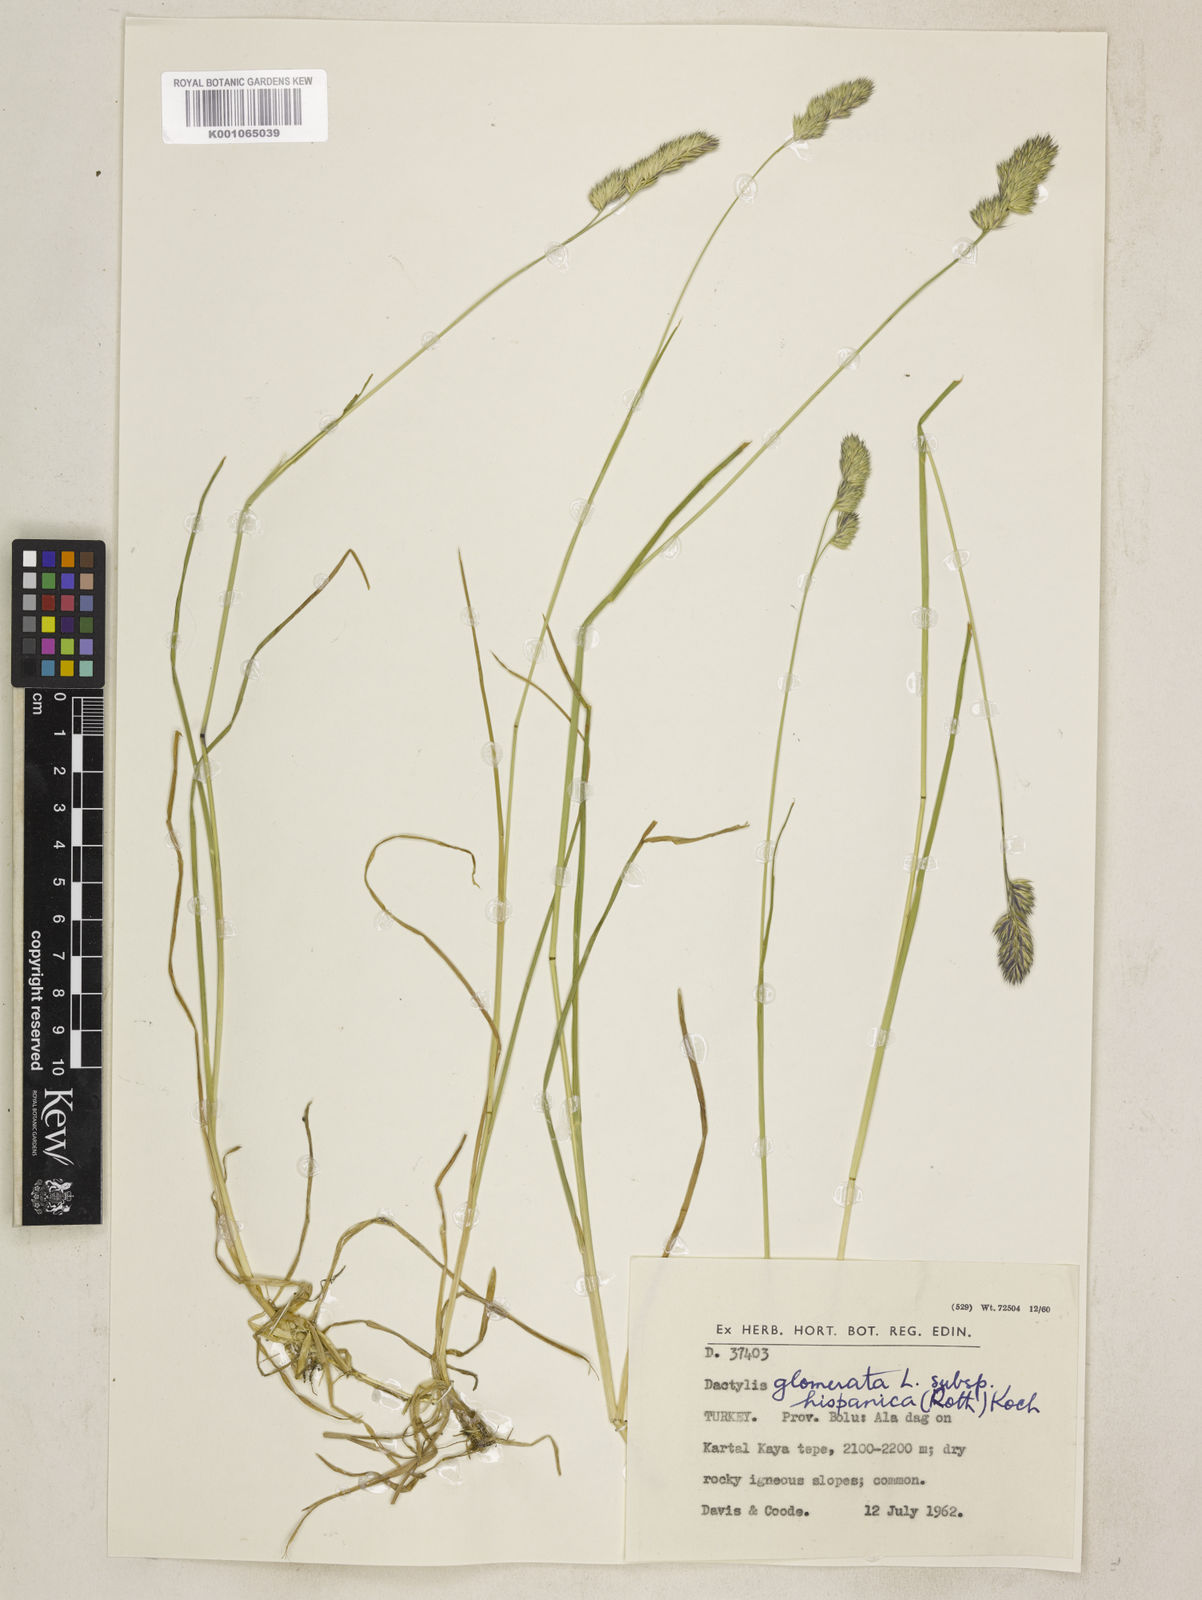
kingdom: Plantae
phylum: Tracheophyta
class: Liliopsida
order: Poales
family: Poaceae
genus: Dactylis
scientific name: Dactylis glomerata
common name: Orchardgrass
